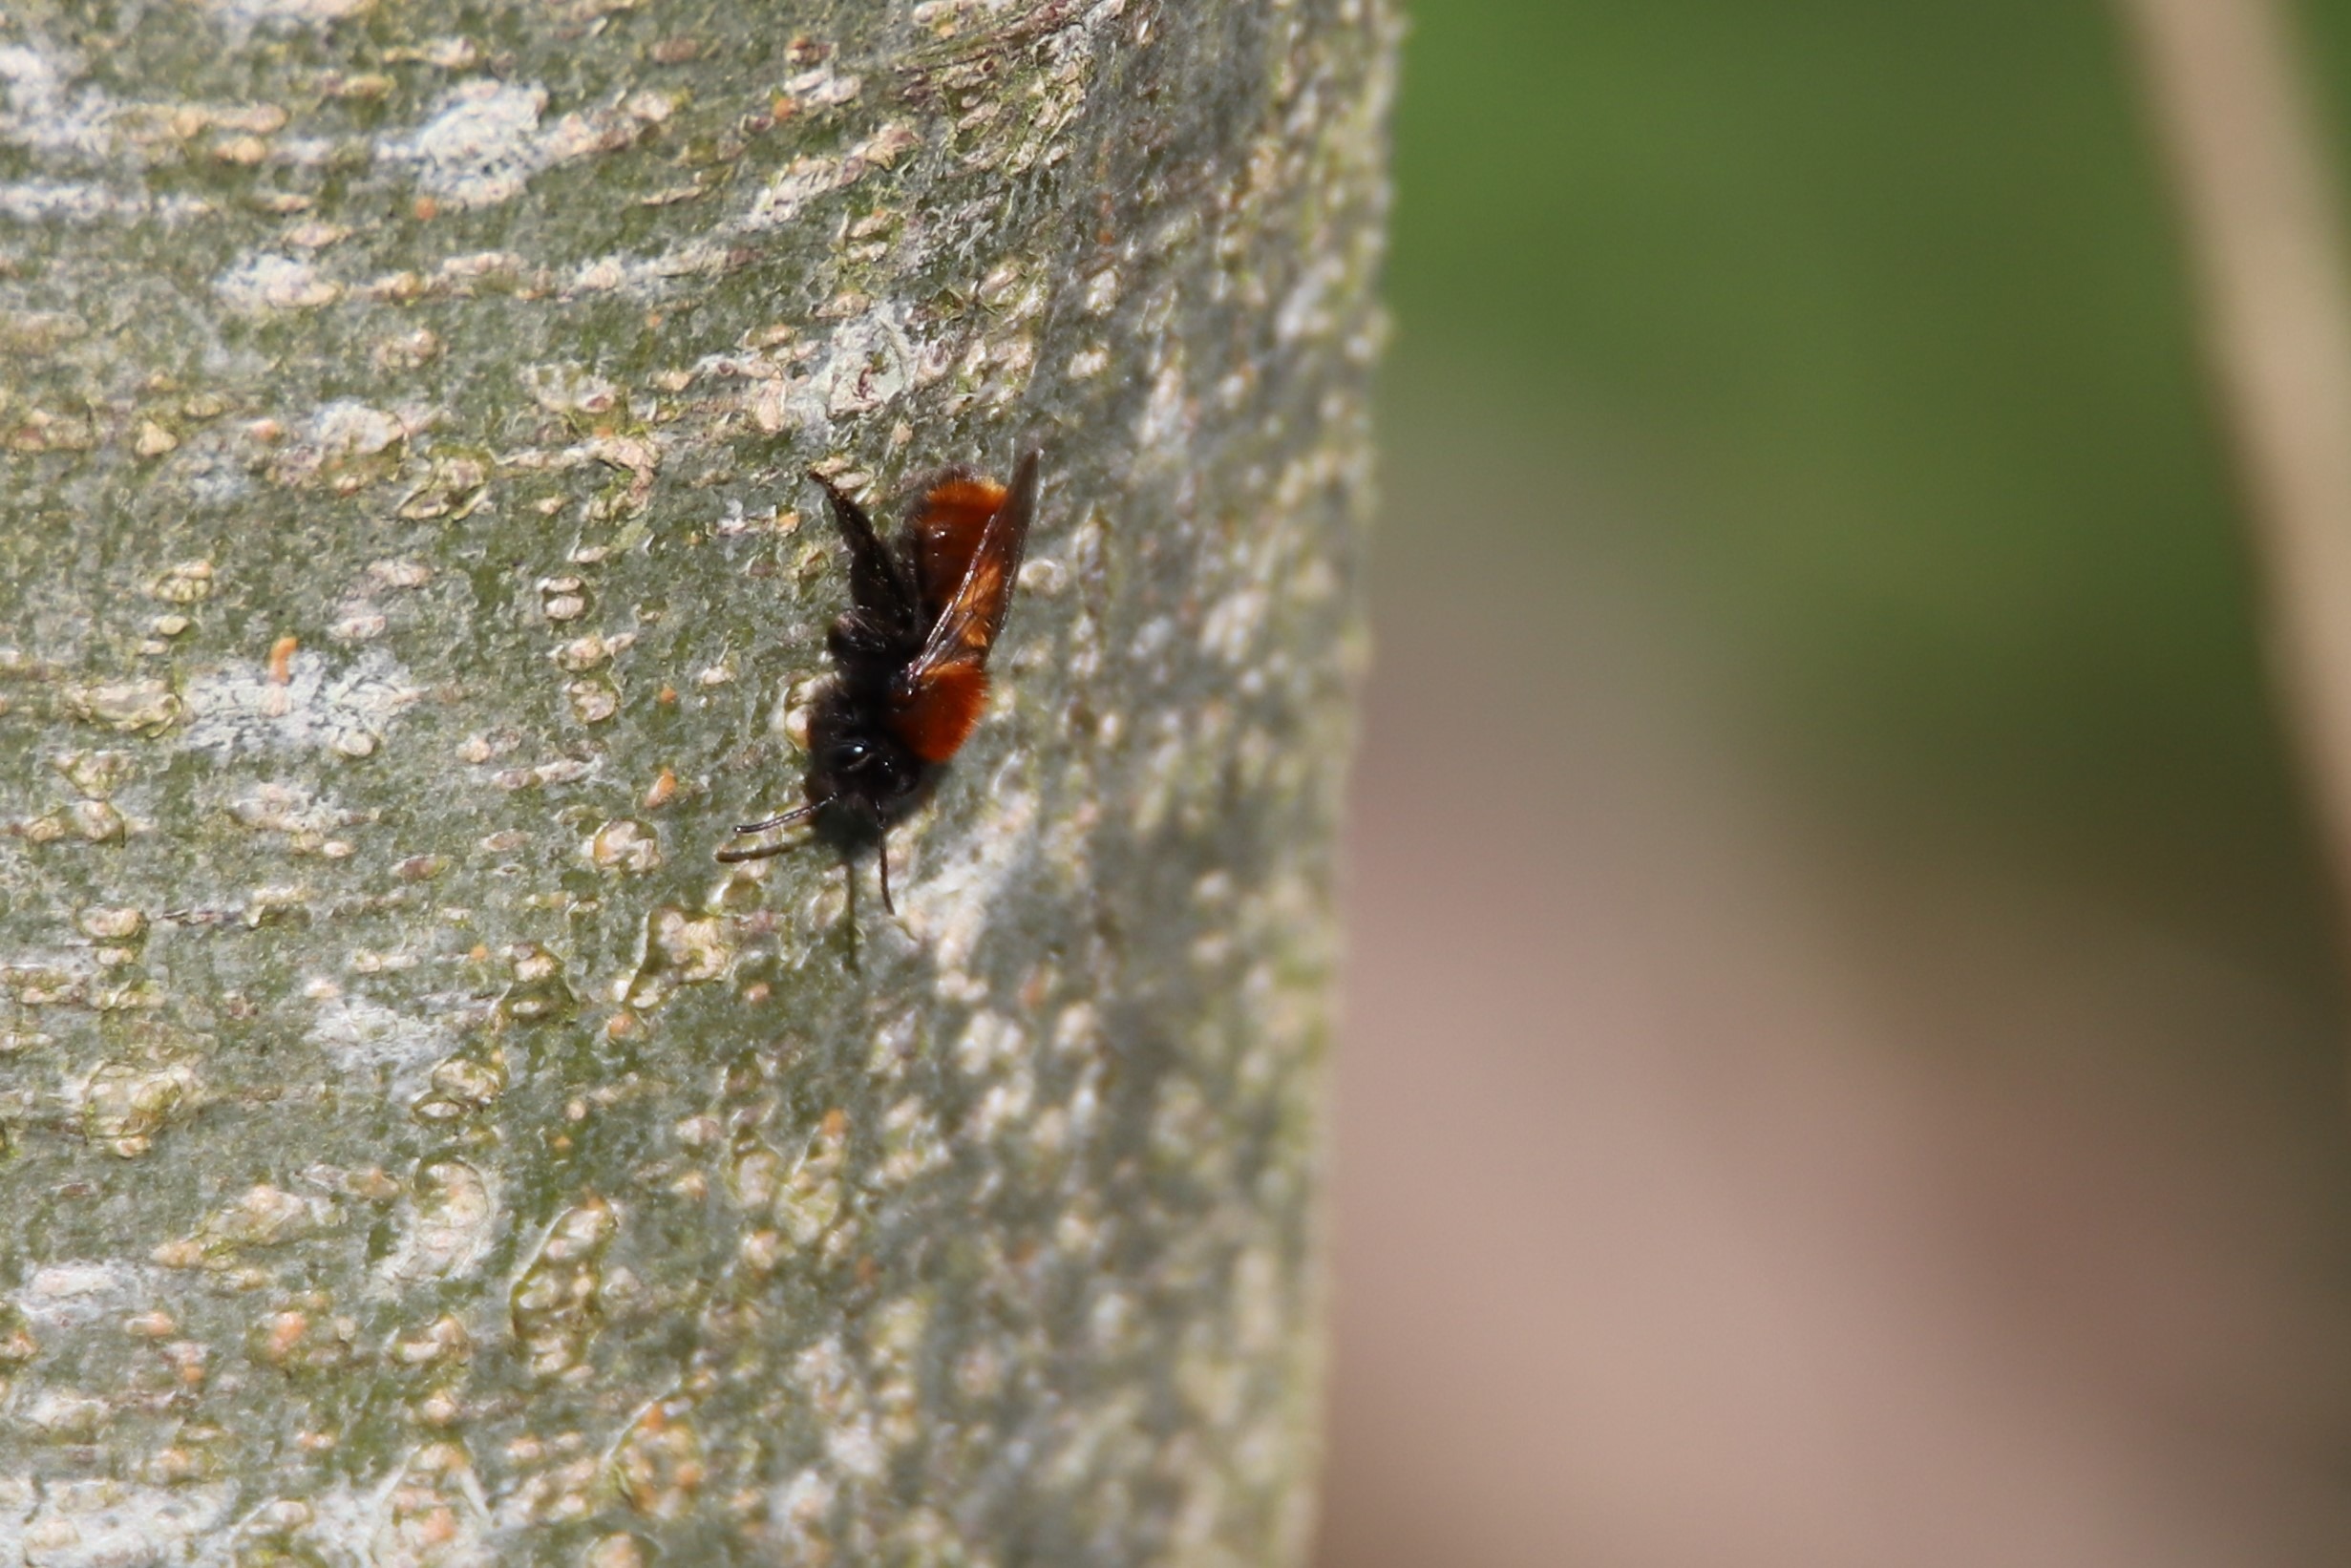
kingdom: Animalia
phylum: Arthropoda
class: Insecta
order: Hymenoptera
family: Andrenidae
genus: Andrena
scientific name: Andrena fulva
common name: Rødpelset jordbi
